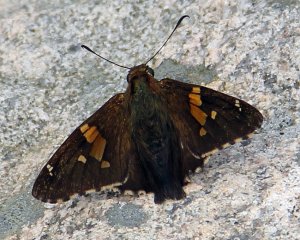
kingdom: Animalia
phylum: Arthropoda
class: Insecta
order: Lepidoptera
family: Hesperiidae
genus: Epargyreus
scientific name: Epargyreus clarus
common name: Silver-spotted Skipper
